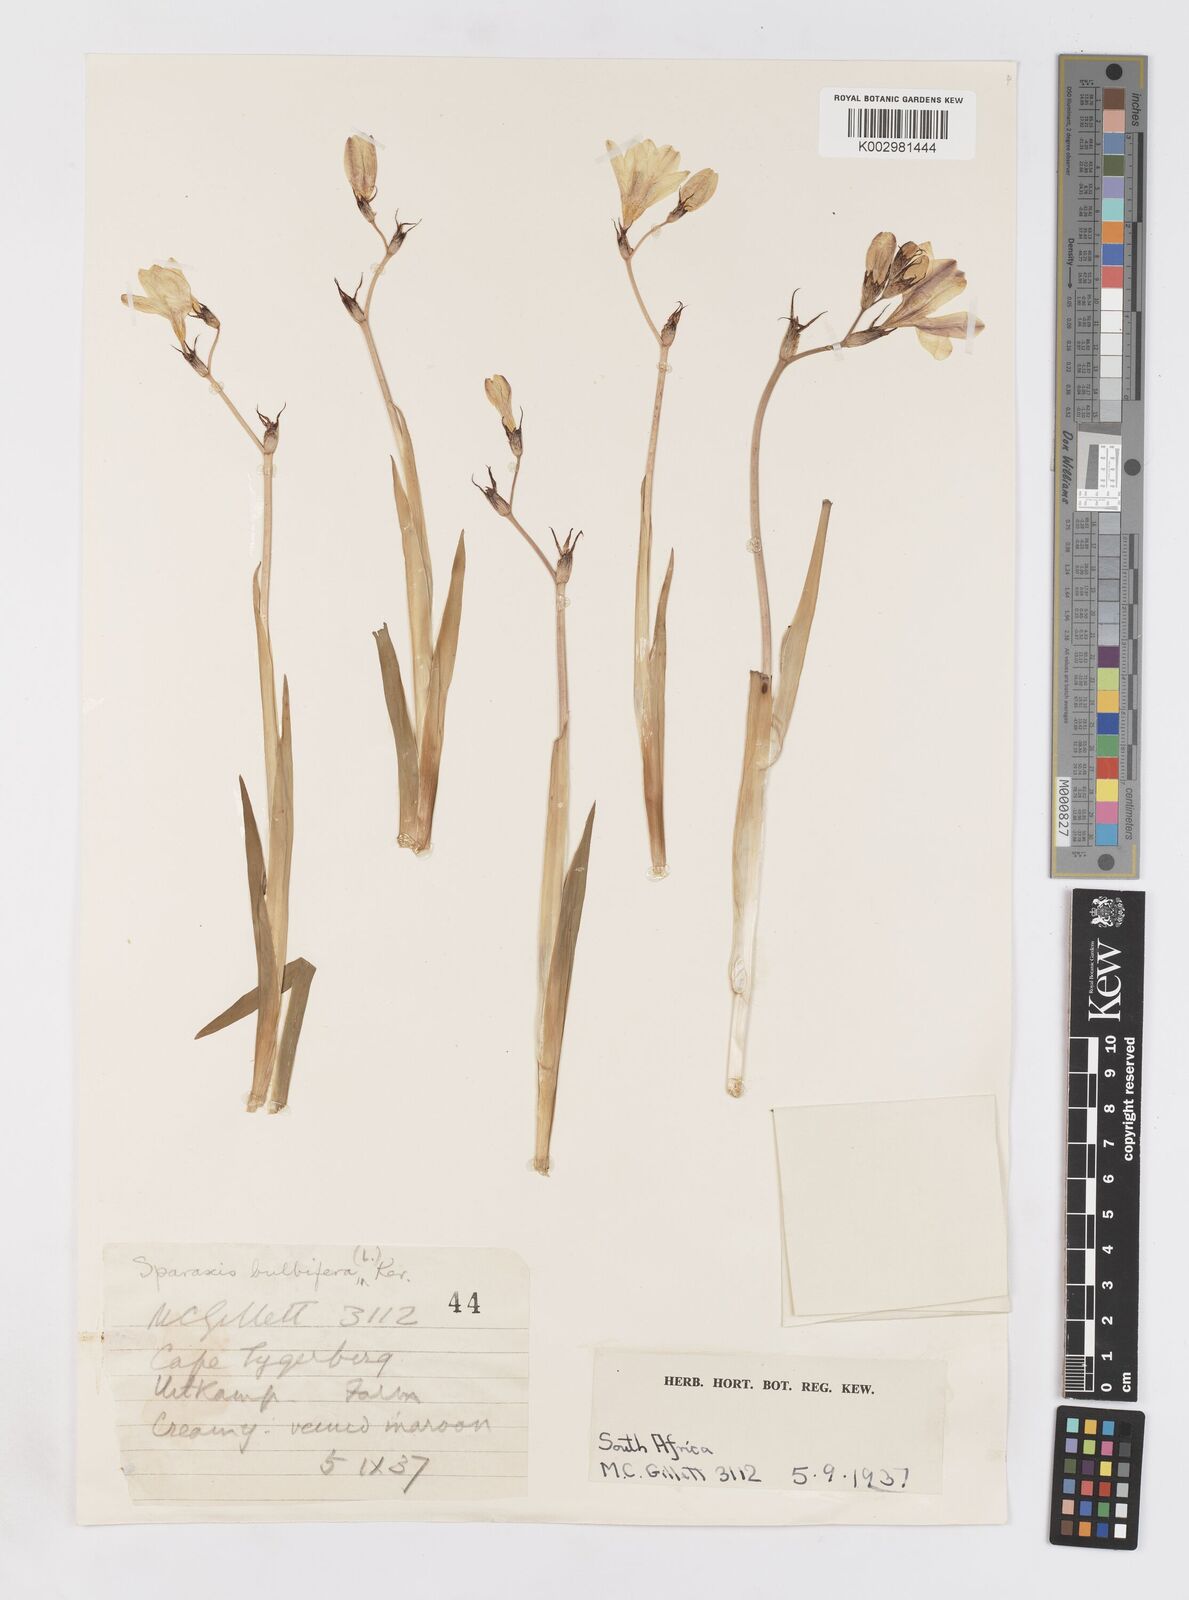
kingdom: Plantae
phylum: Tracheophyta
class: Liliopsida
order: Asparagales
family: Iridaceae
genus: Sparaxis
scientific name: Sparaxis bulbifera
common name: Harlequin-flower
